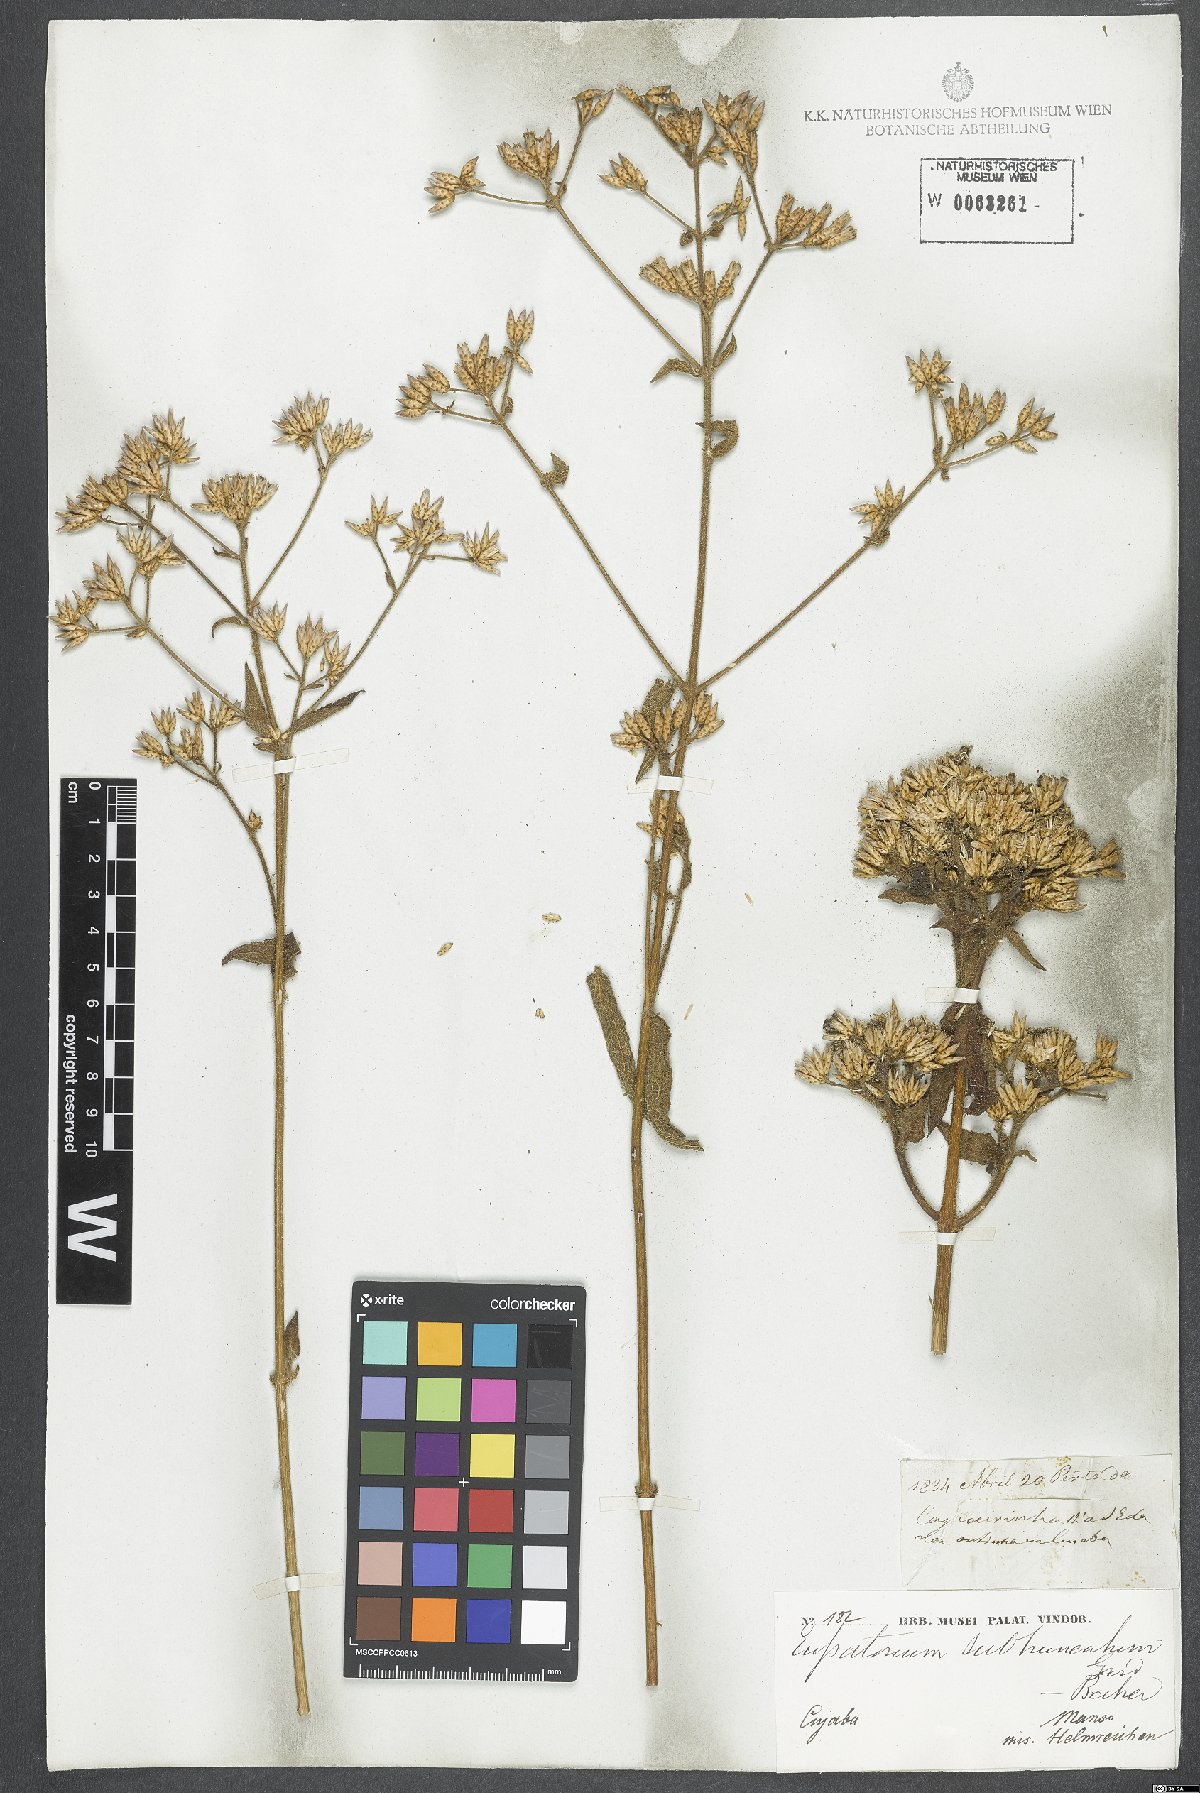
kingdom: Plantae
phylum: Tracheophyta
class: Magnoliopsida
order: Asterales
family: Asteraceae
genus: Eupatorium
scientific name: Eupatorium subtruncatum
